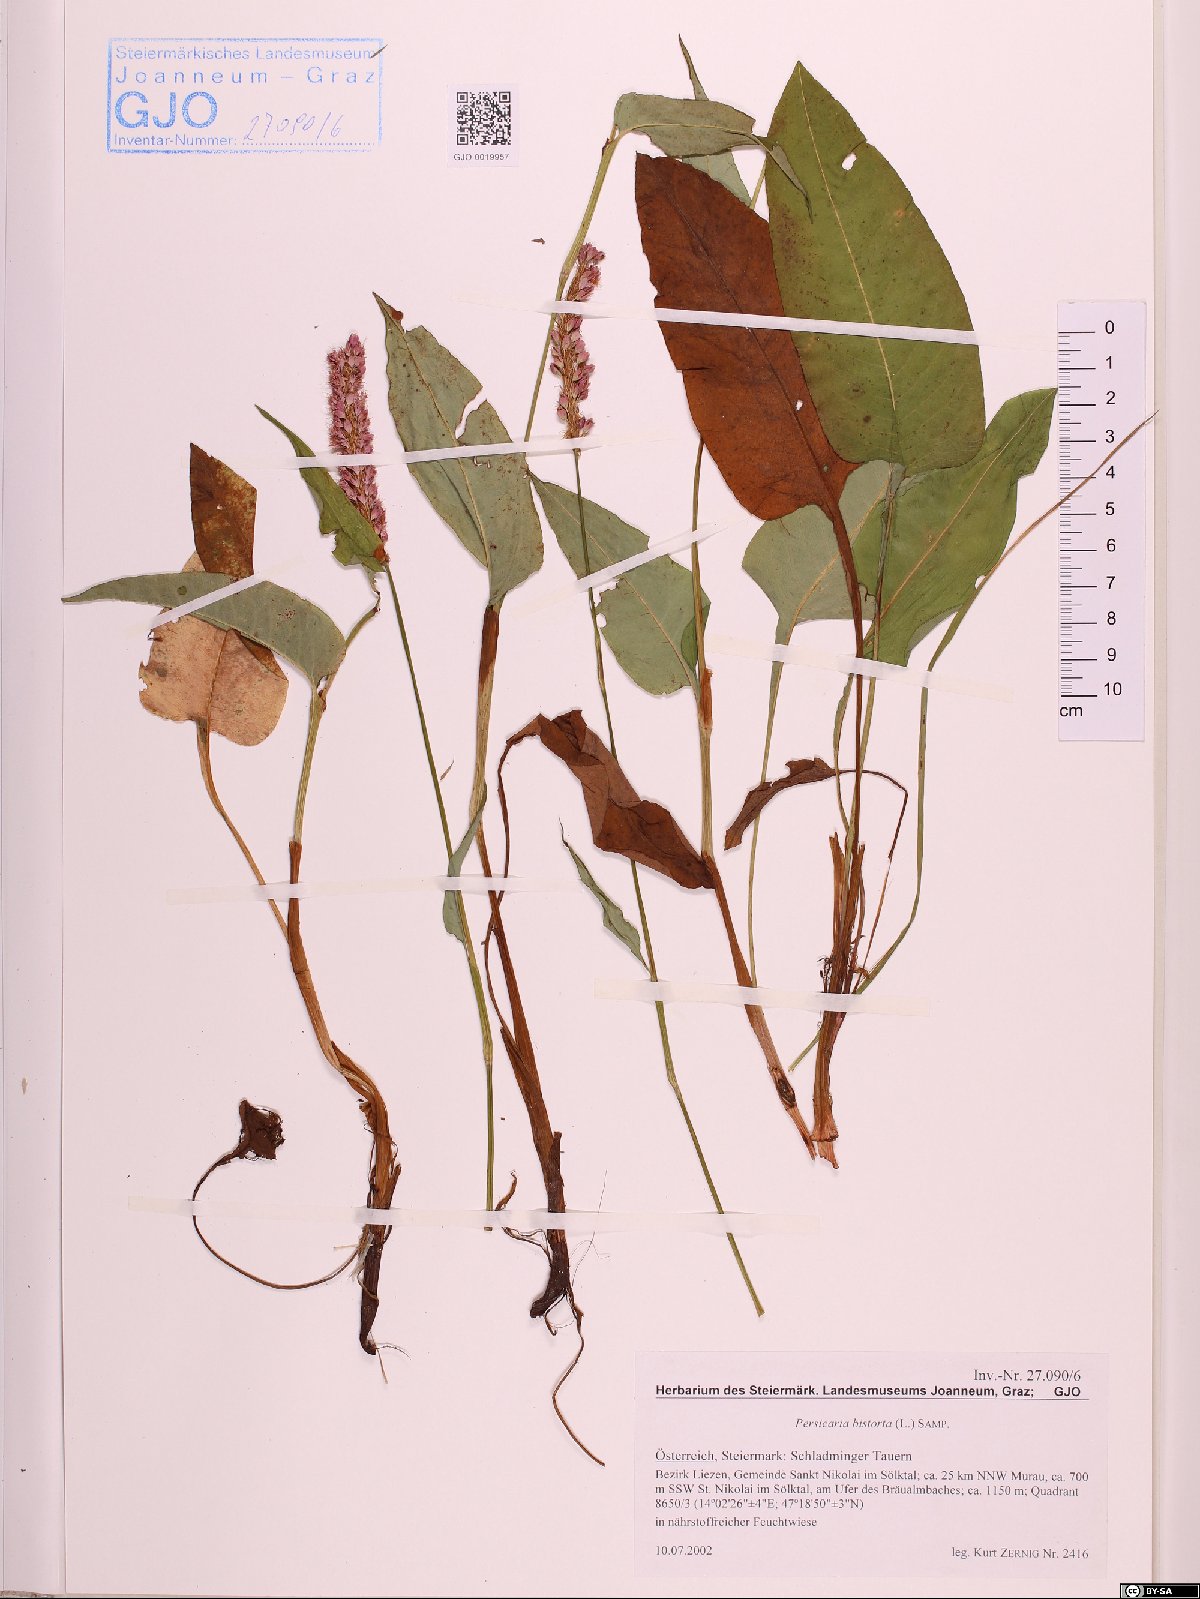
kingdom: Plantae
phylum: Tracheophyta
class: Magnoliopsida
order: Caryophyllales
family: Polygonaceae
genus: Bistorta
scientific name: Bistorta officinalis
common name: Common bistort
